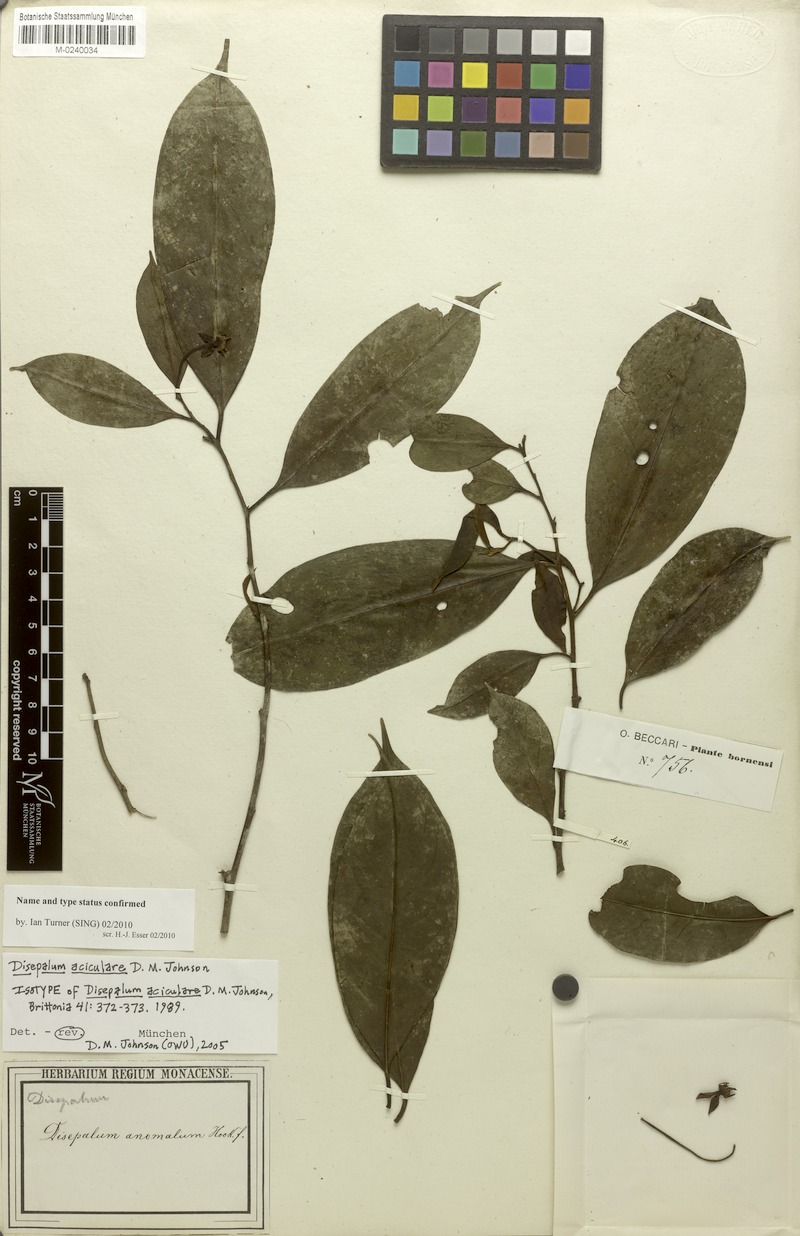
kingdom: Plantae
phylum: Tracheophyta
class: Magnoliopsida
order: Magnoliales
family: Annonaceae
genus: Disepalum
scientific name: Disepalum aciculare
